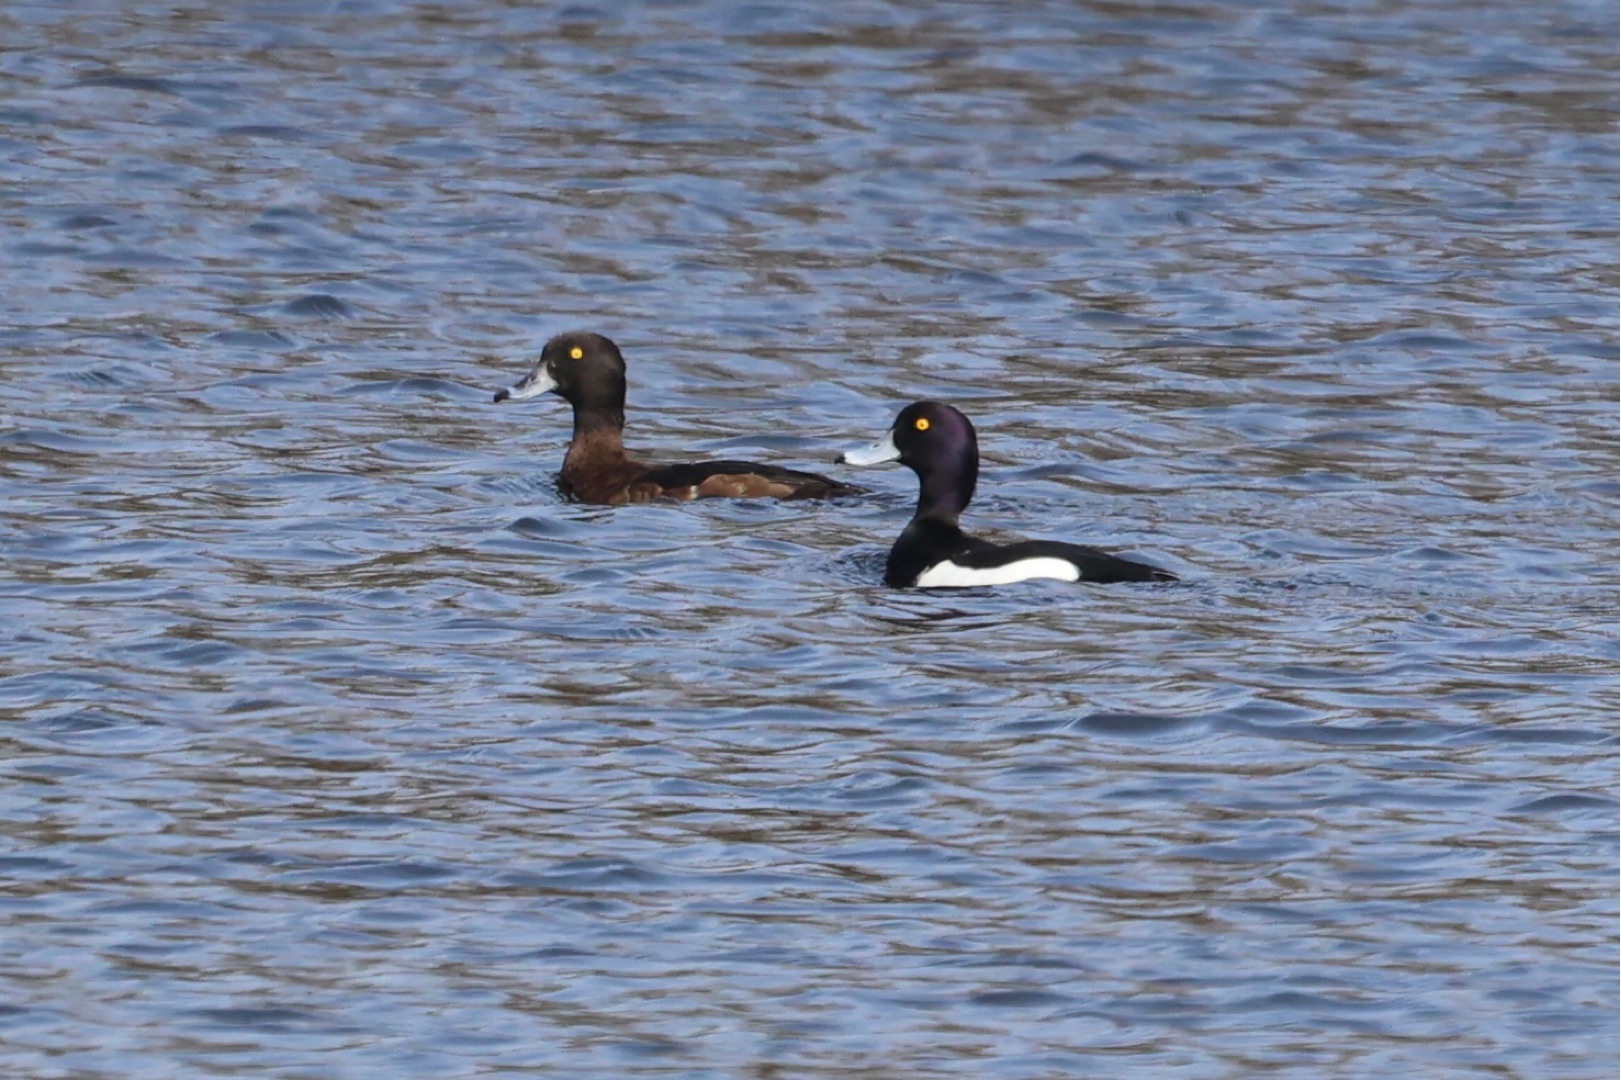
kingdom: Animalia
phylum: Chordata
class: Aves
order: Anseriformes
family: Anatidae
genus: Aythya
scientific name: Aythya fuligula
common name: Troldand
